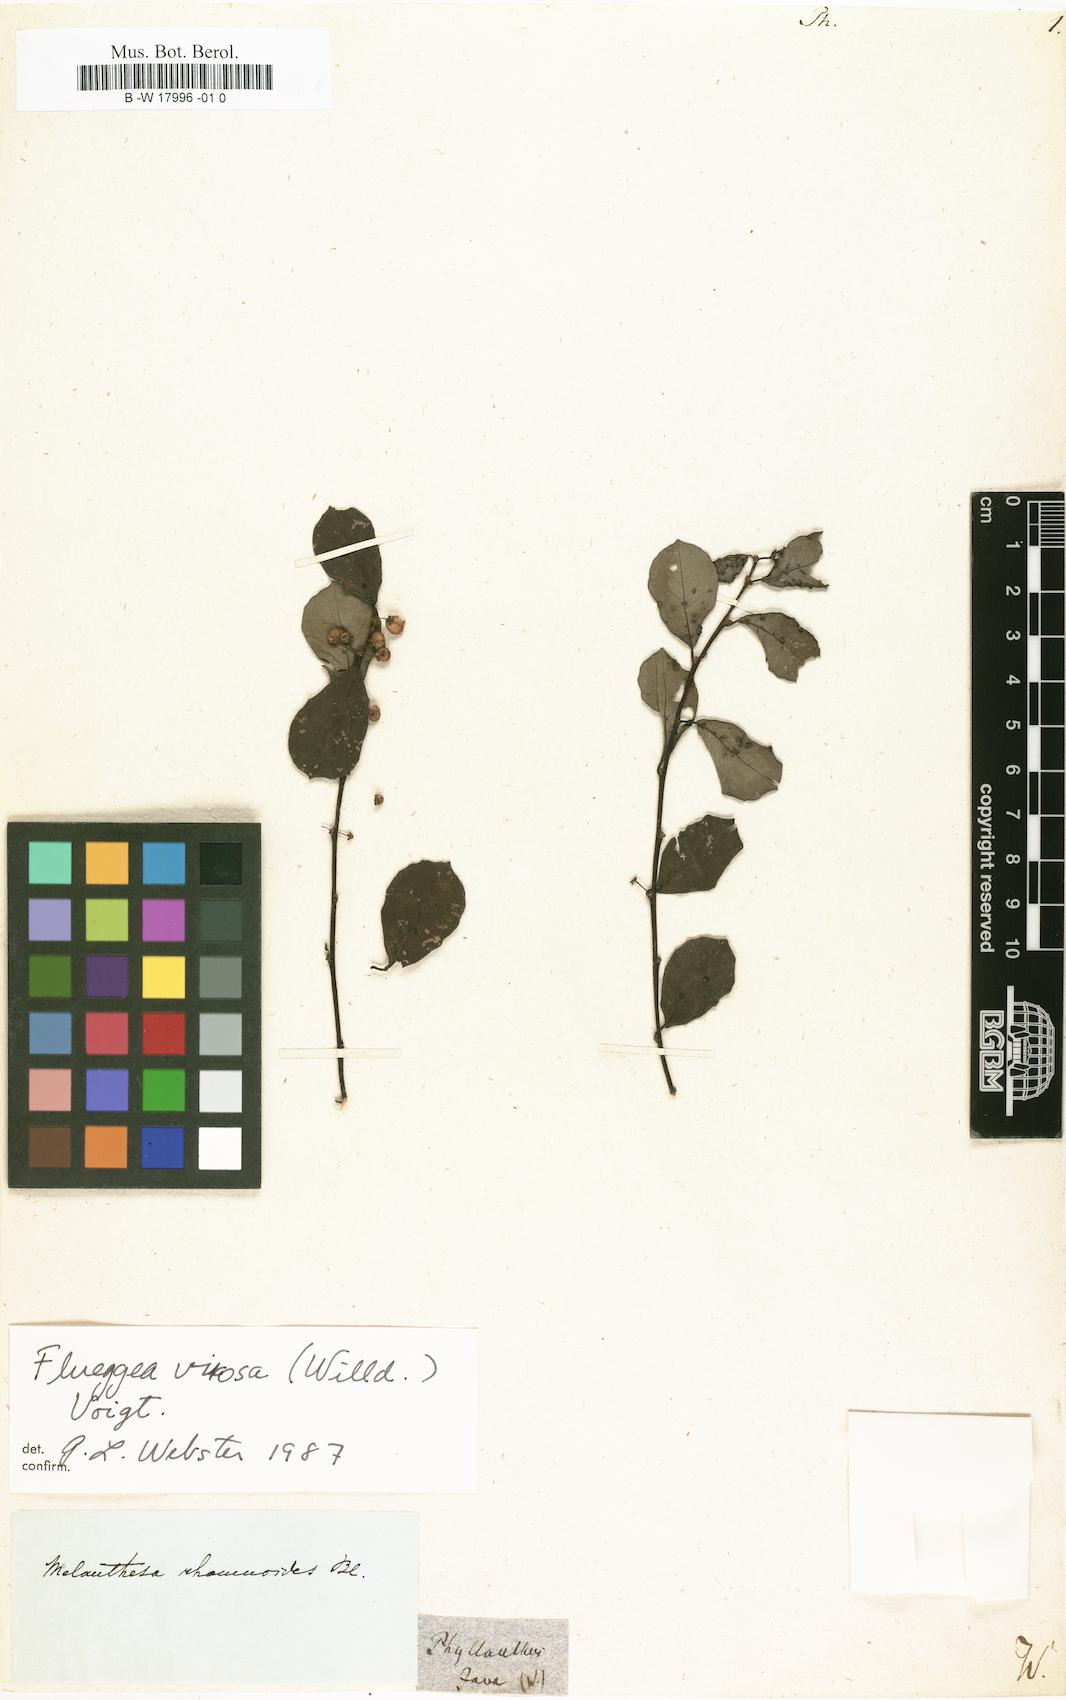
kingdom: Plantae
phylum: Tracheophyta
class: Magnoliopsida
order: Malpighiales
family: Phyllanthaceae
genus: Phyllanthus
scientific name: Phyllanthus
